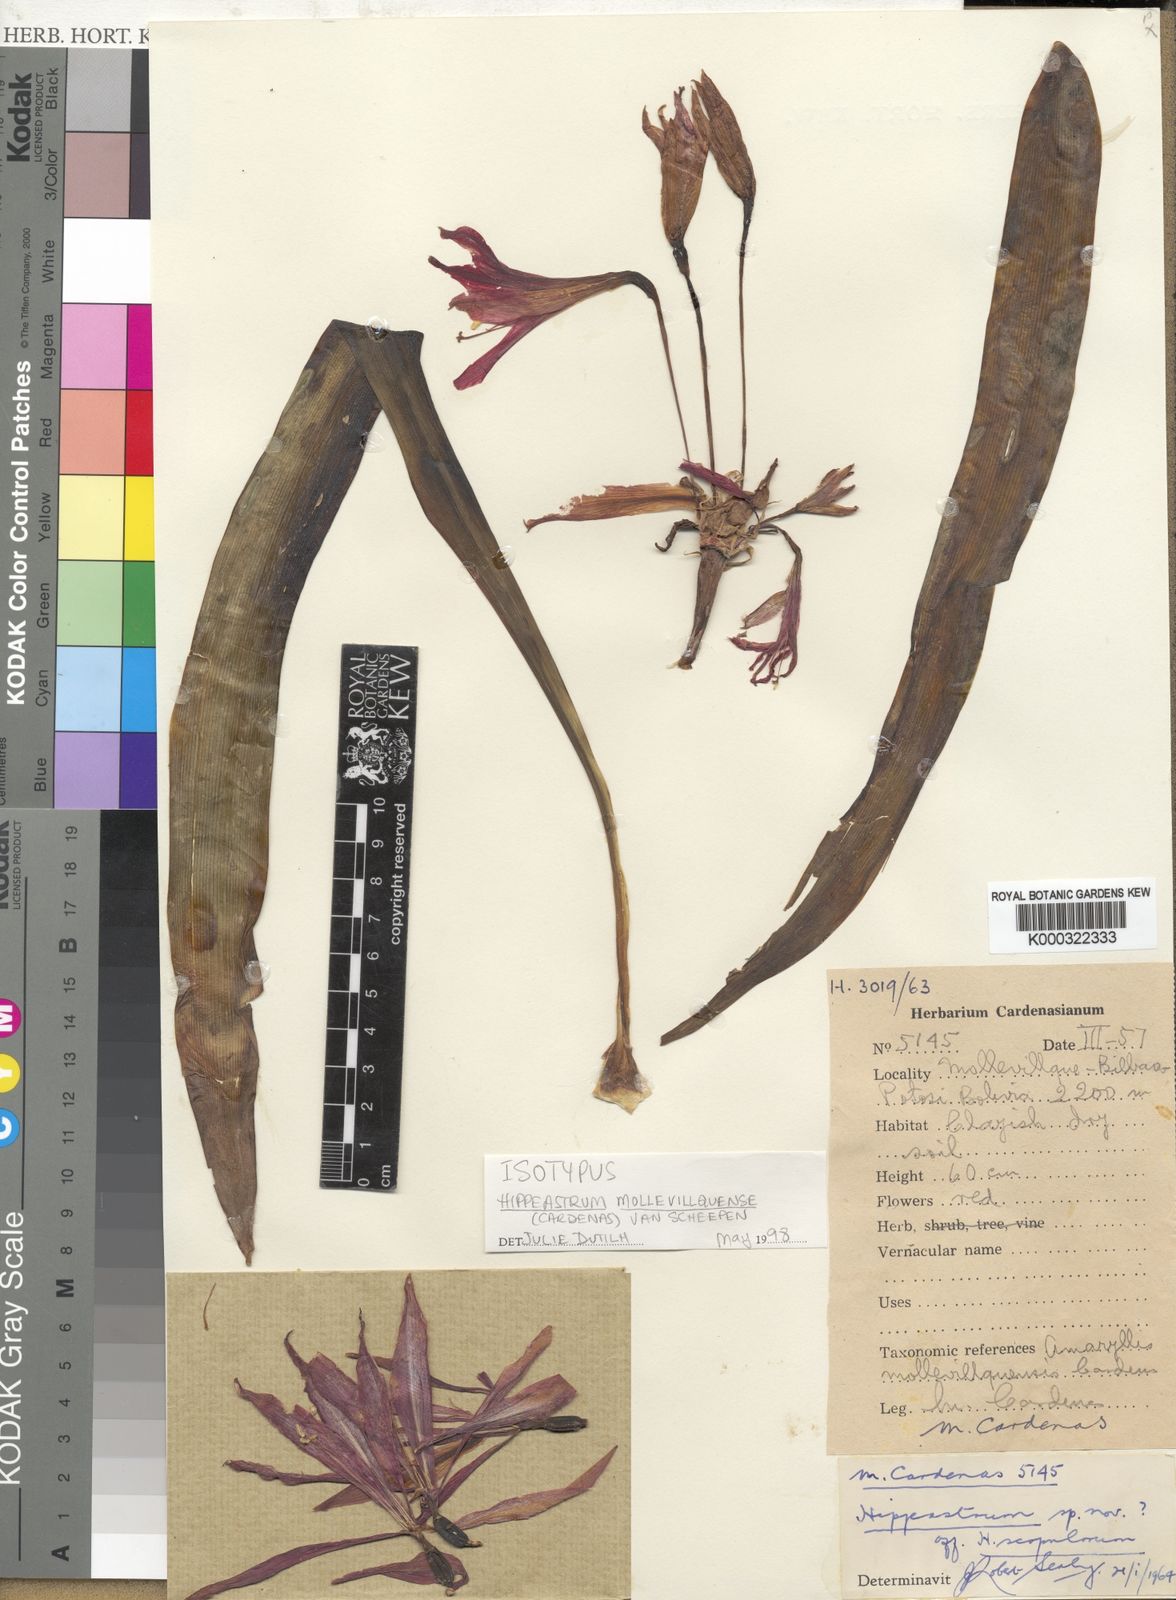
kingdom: Plantae
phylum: Tracheophyta
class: Liliopsida
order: Asparagales
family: Amaryllidaceae
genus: Hippeastrum
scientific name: Hippeastrum
